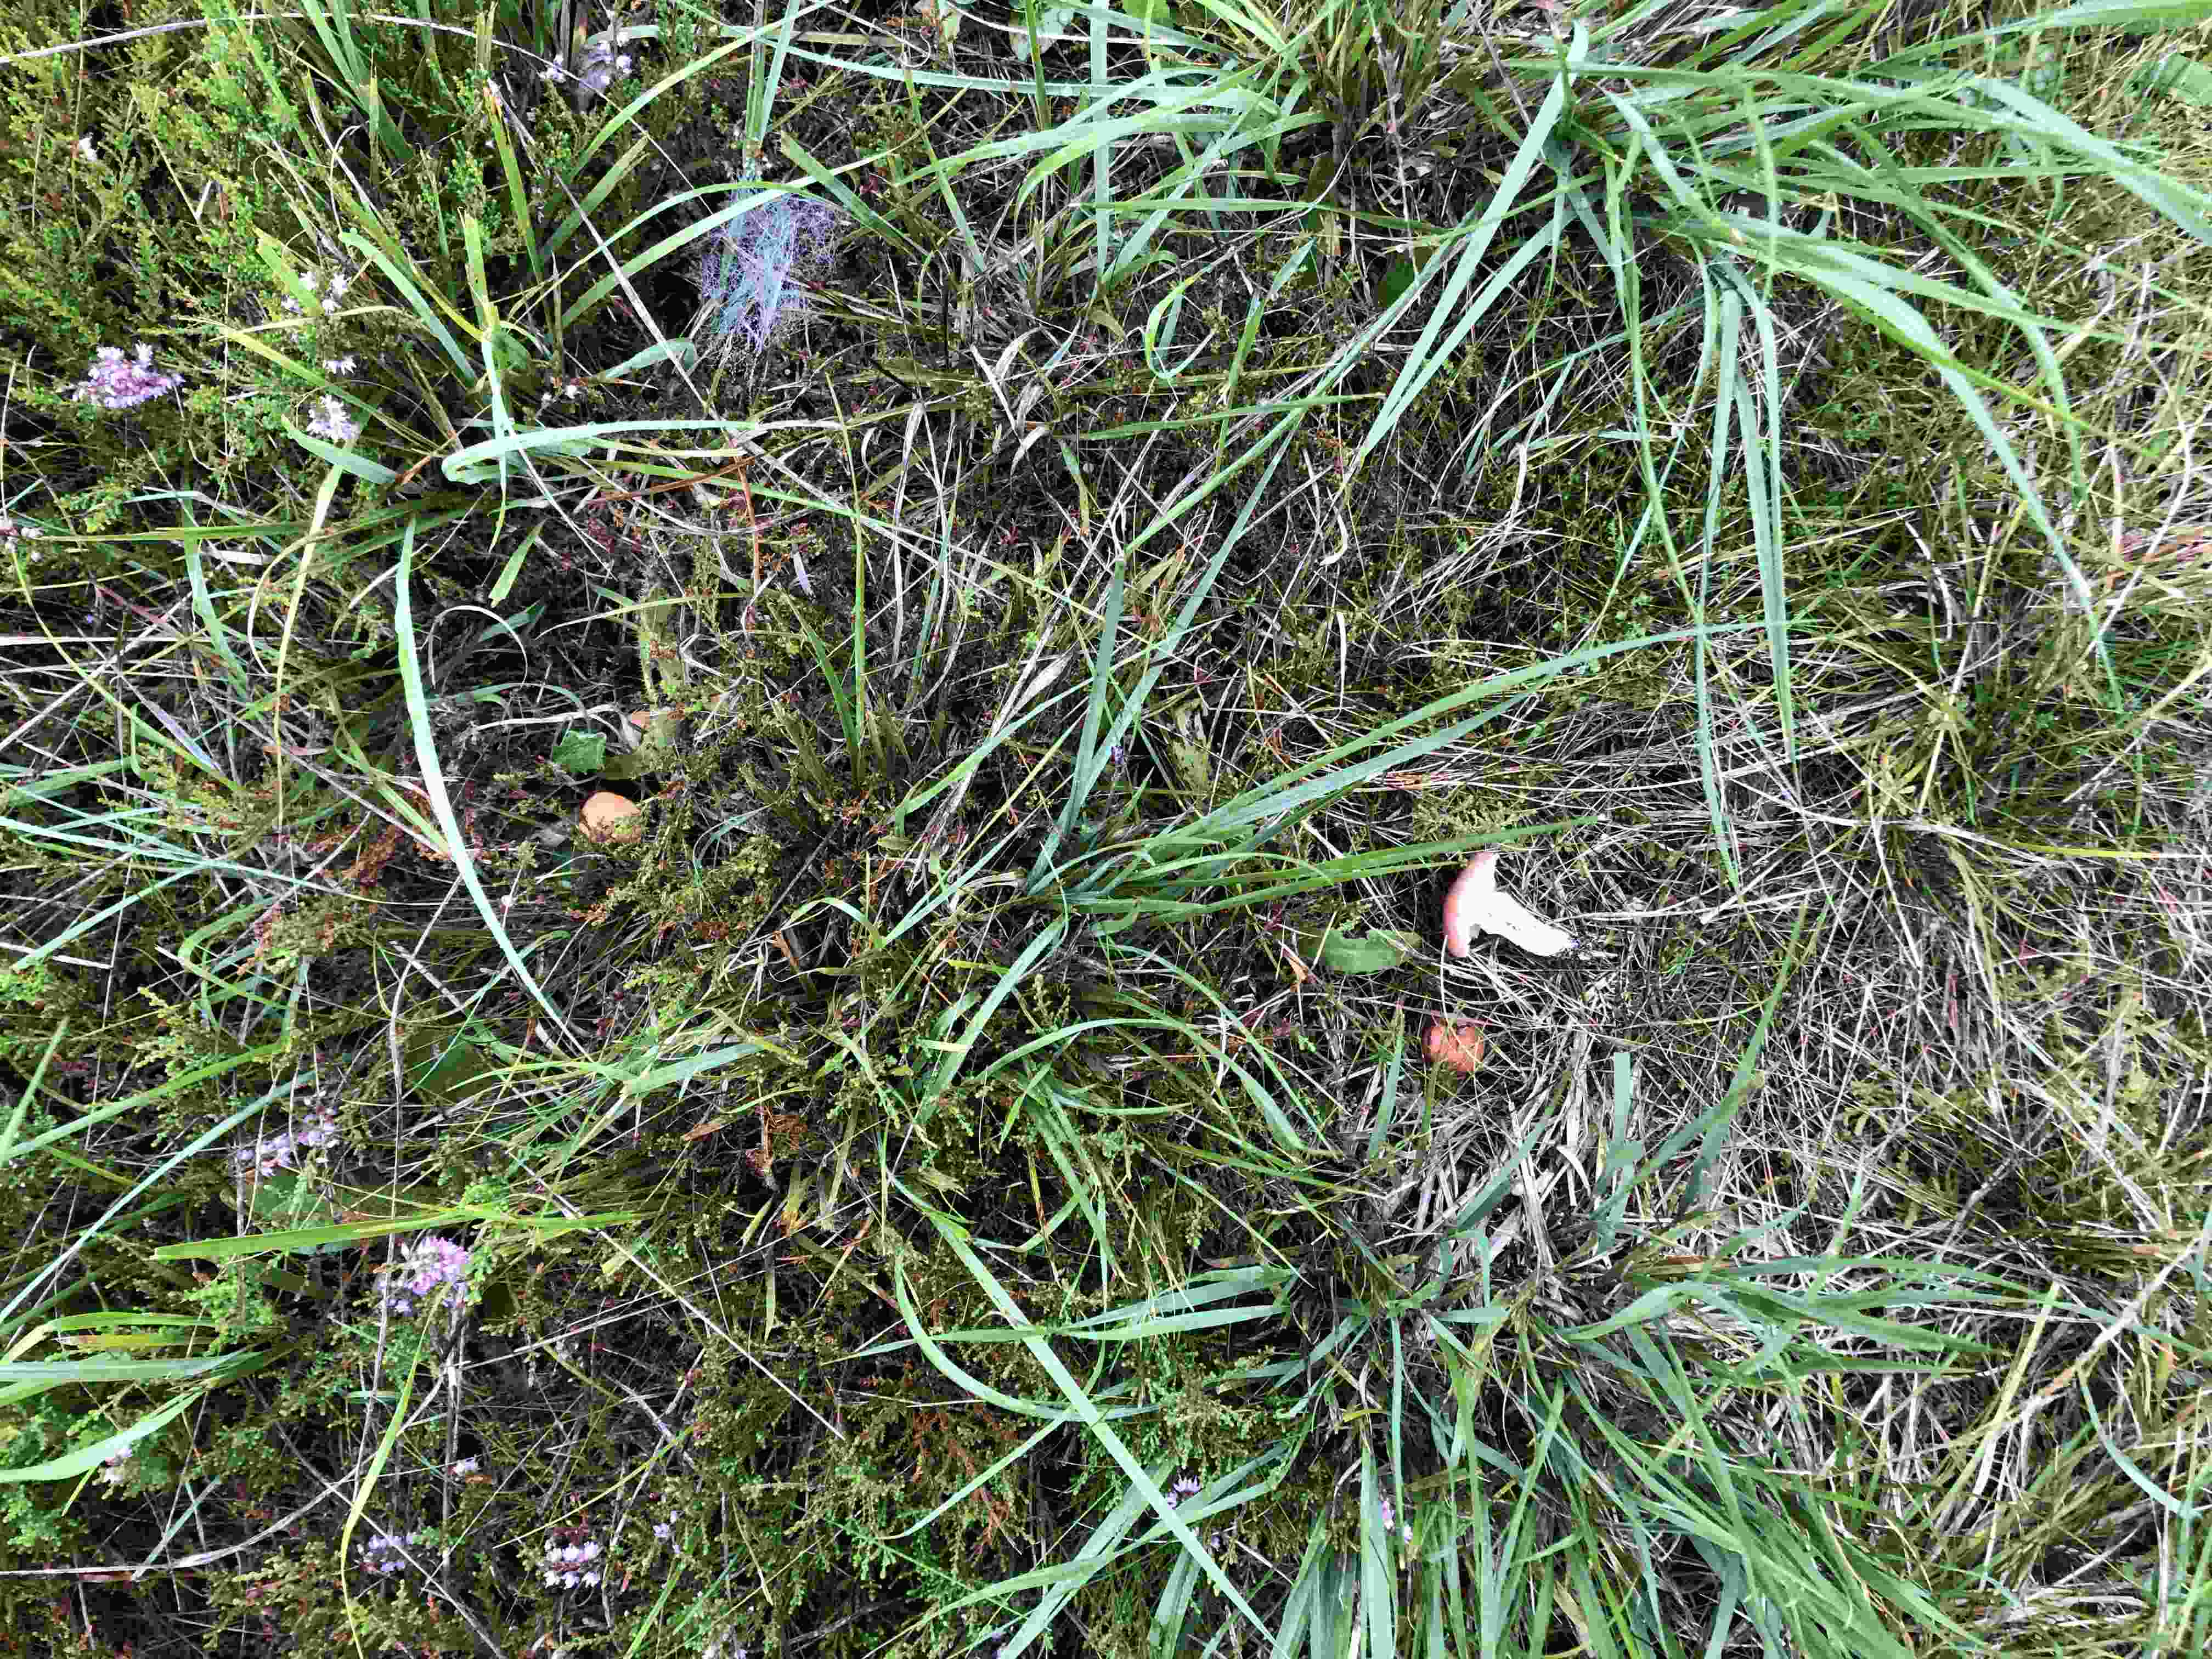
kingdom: Fungi
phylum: Basidiomycota
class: Agaricomycetes
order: Boletales
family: Suillaceae
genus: Suillus
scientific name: Suillus bovinus
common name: grovporet slimrørhat
